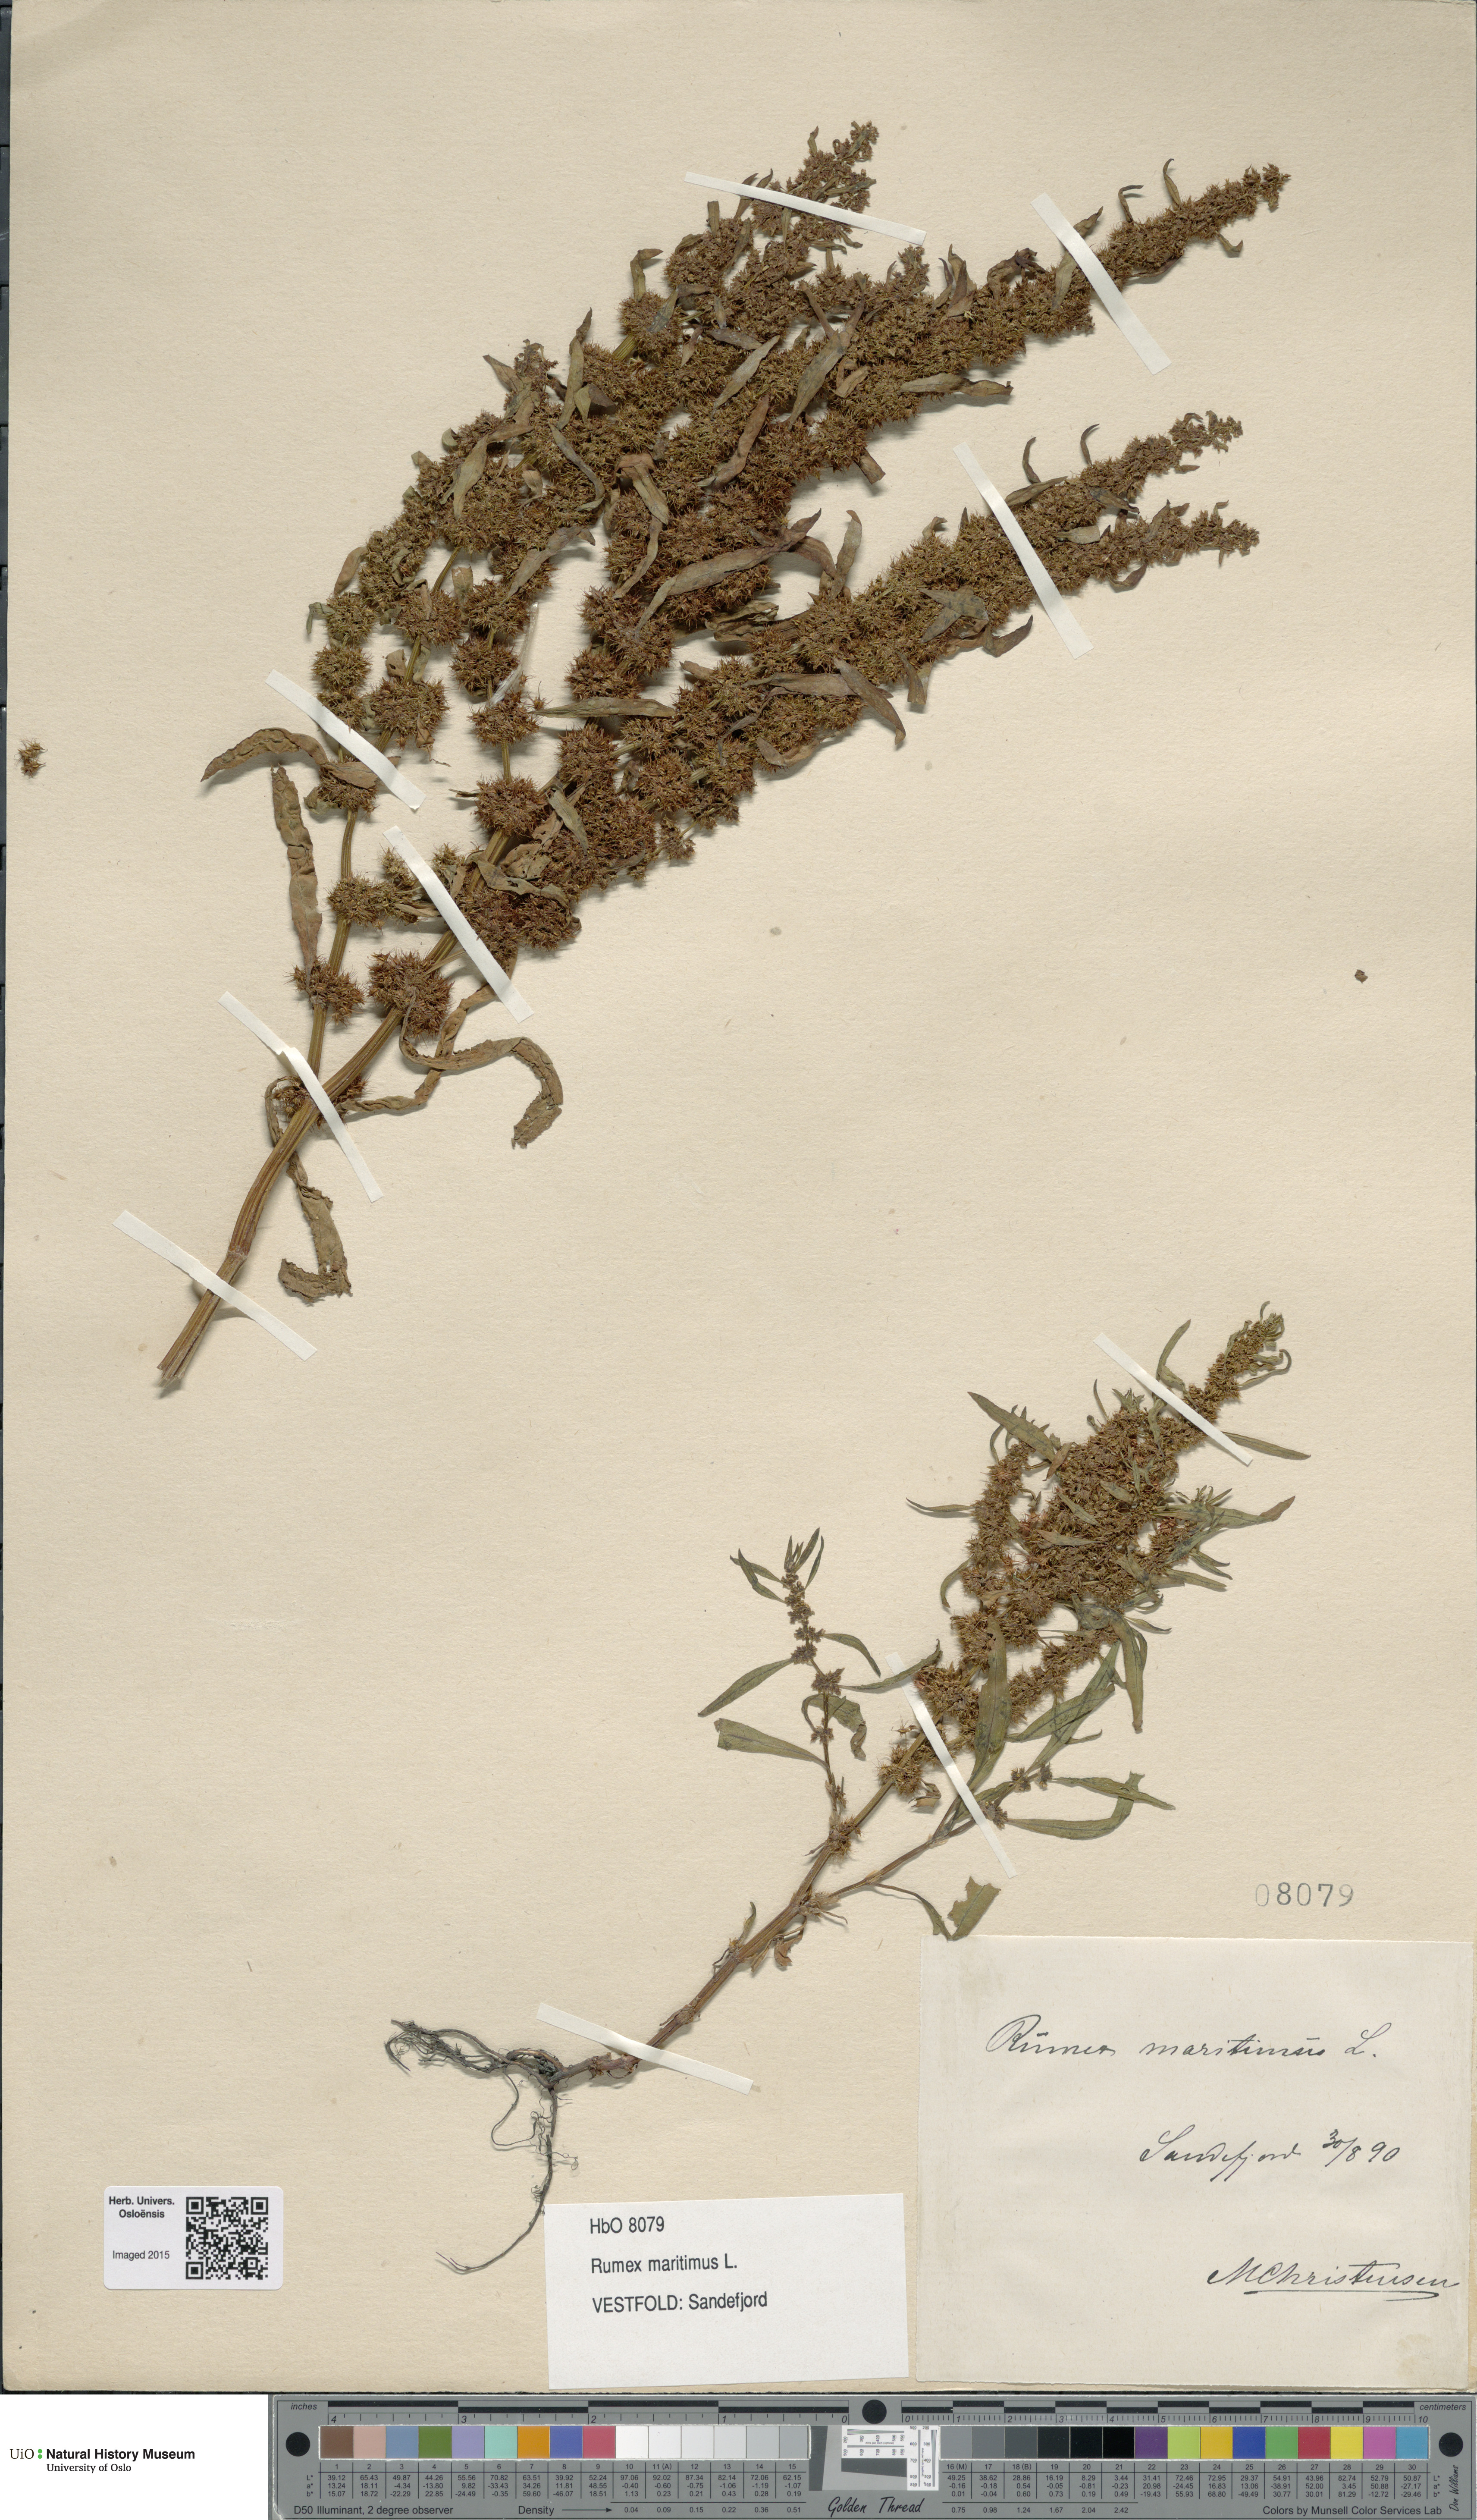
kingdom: Plantae
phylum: Tracheophyta
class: Magnoliopsida
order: Caryophyllales
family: Polygonaceae
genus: Rumex
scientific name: Rumex maritimus
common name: Golden dock
